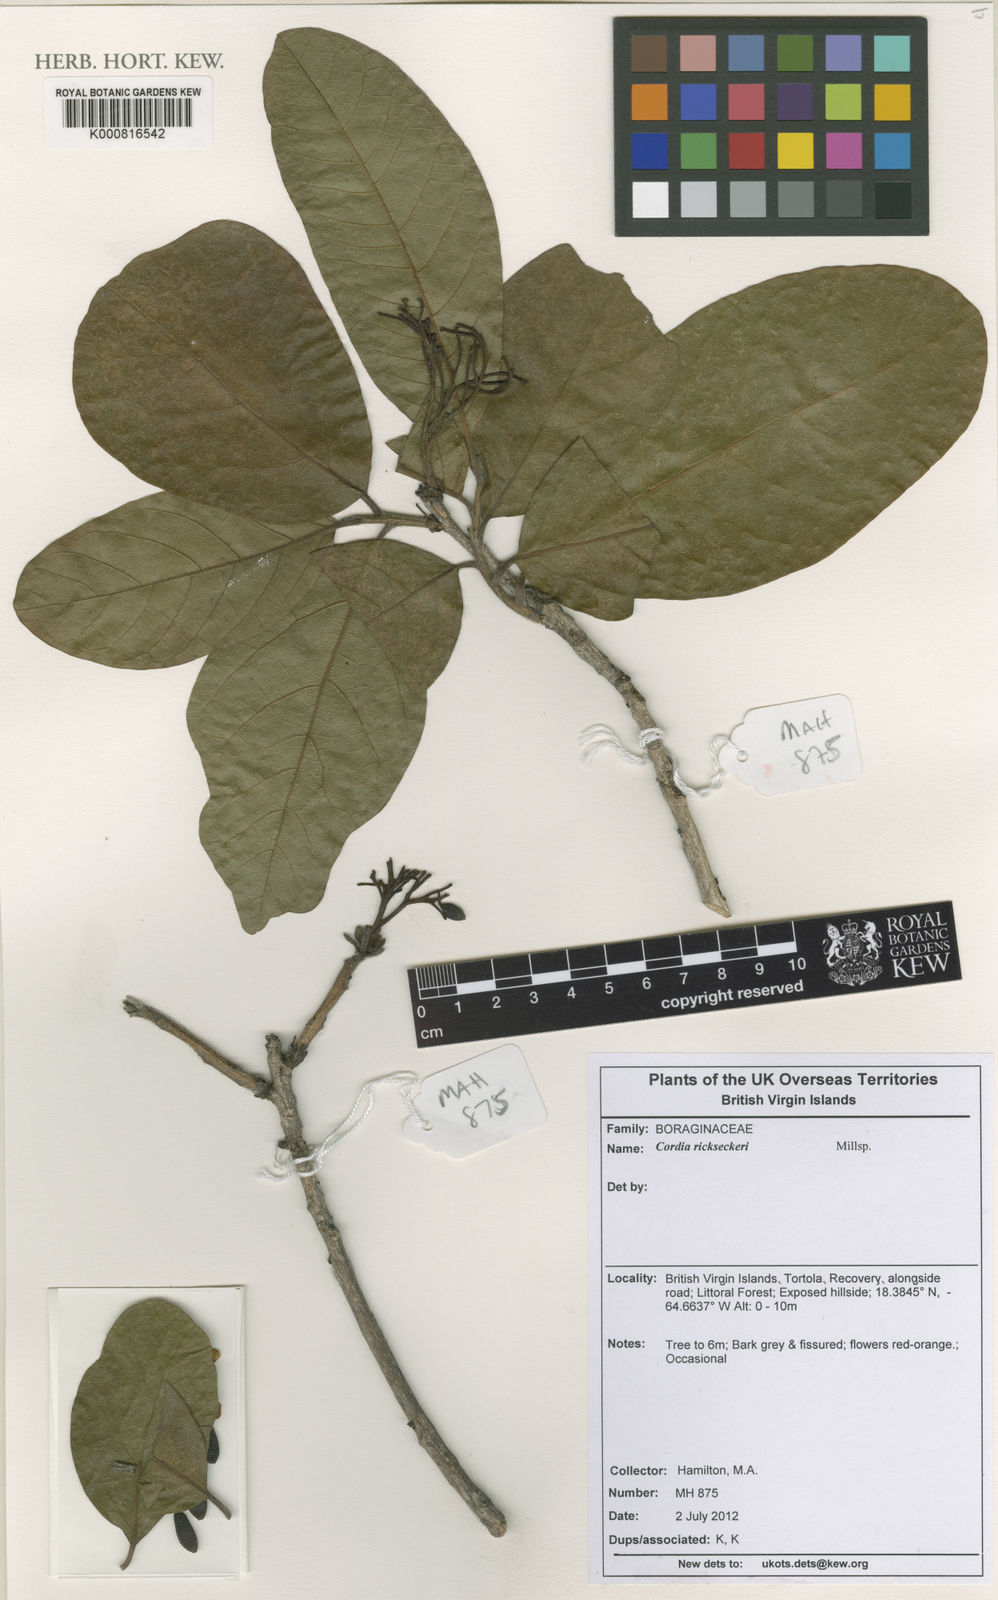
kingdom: Plantae
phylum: Tracheophyta
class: Magnoliopsida
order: Boraginales
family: Cordiaceae
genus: Cordia
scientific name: Cordia rickseckeri
